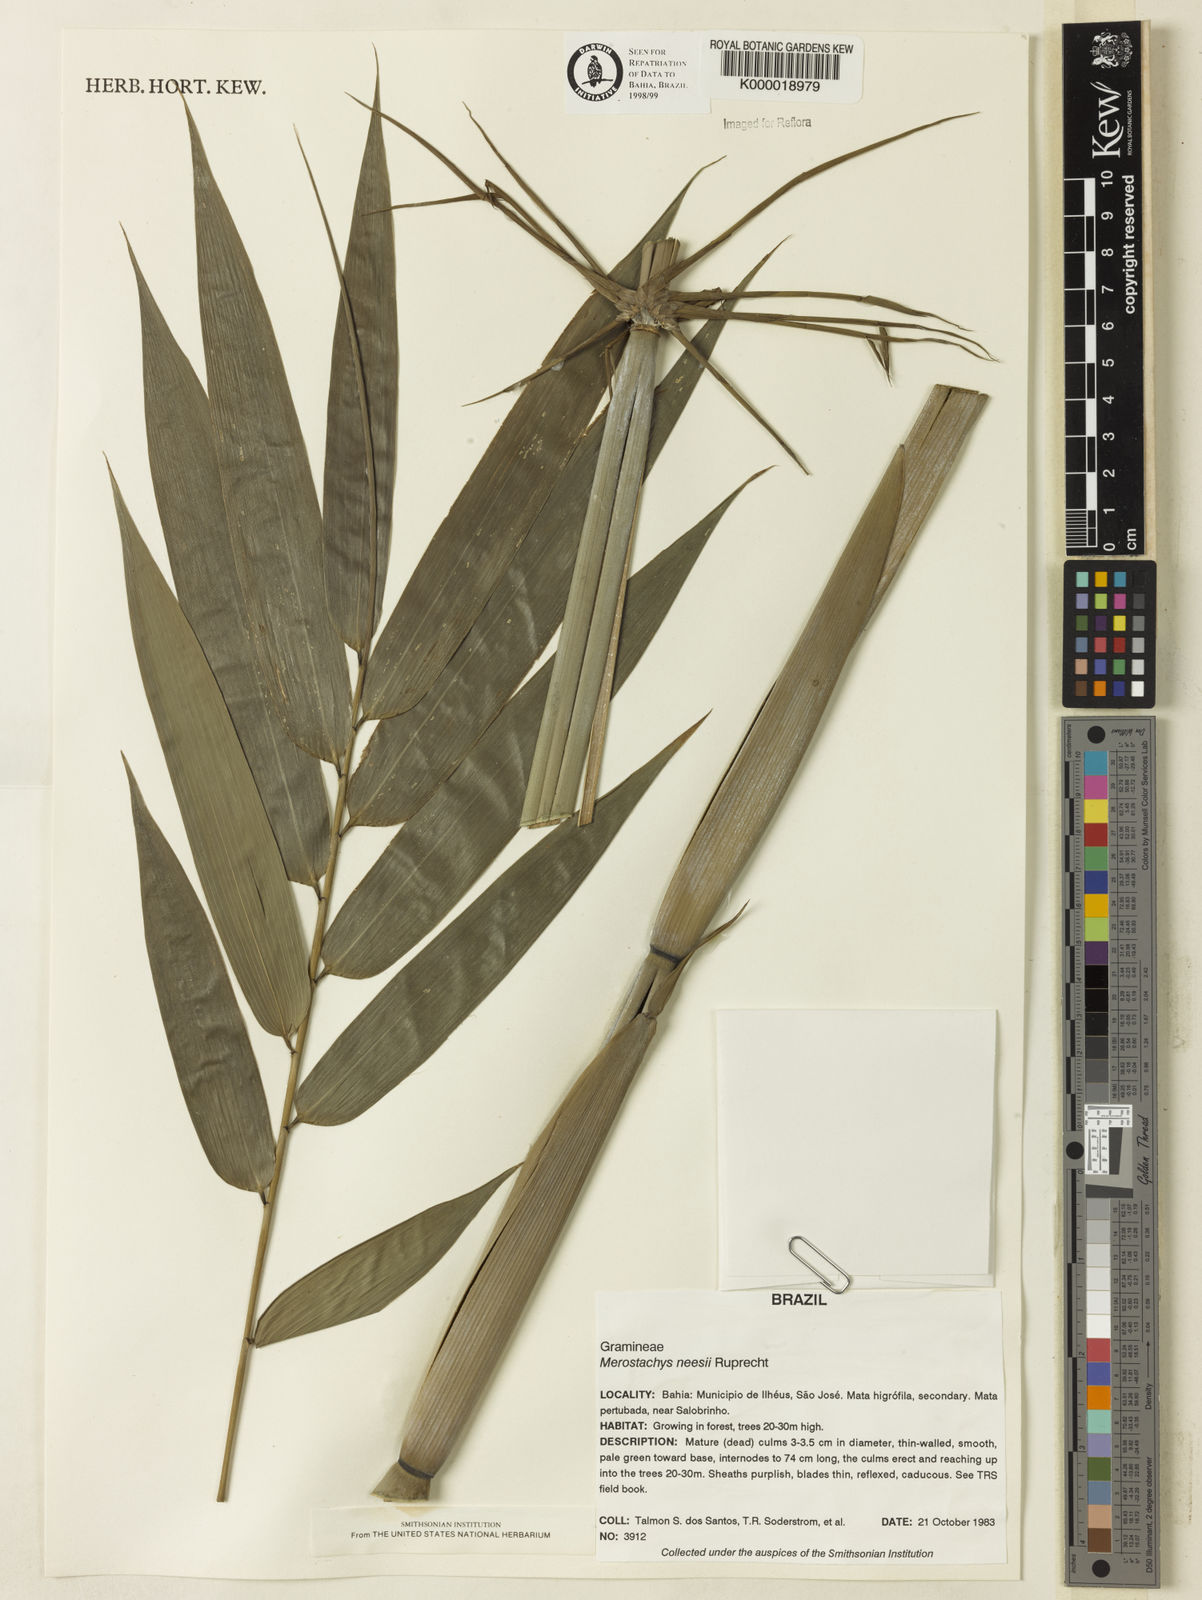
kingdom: Plantae
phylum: Tracheophyta
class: Liliopsida
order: Poales
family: Poaceae
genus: Merostachys
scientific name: Merostachys neesii
